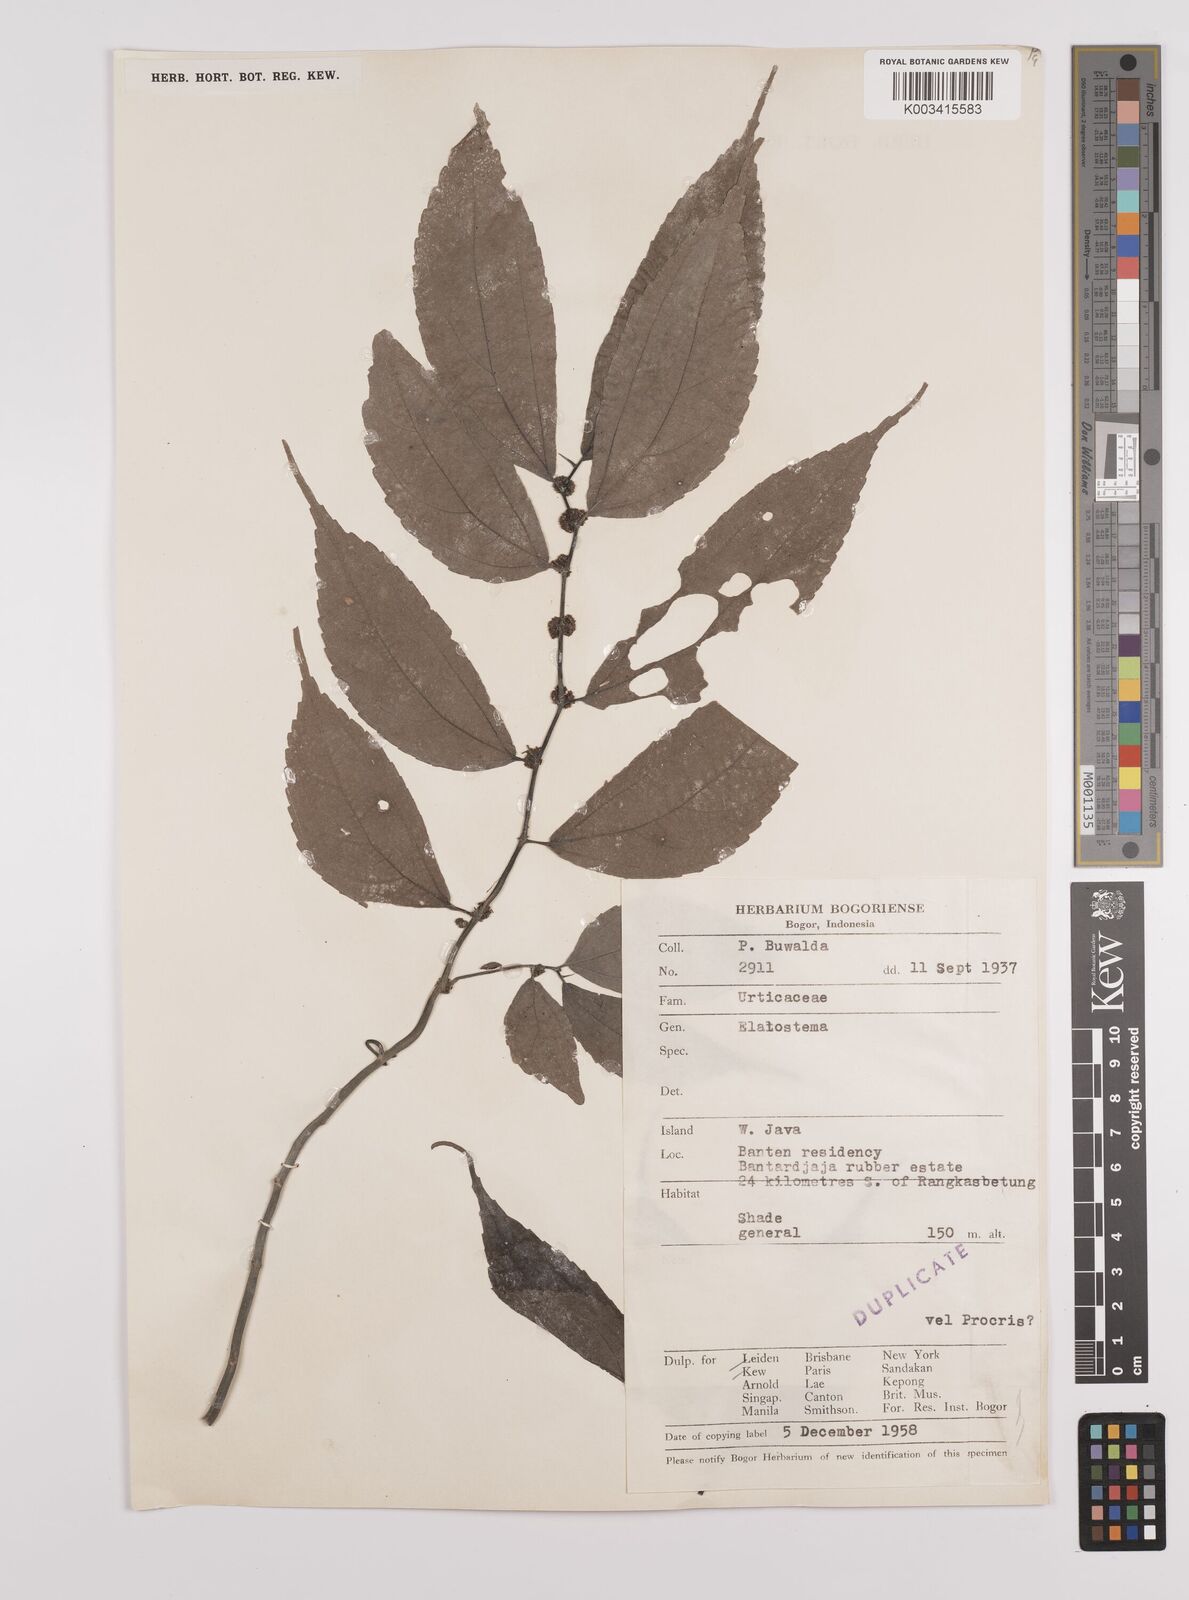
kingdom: Plantae
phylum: Tracheophyta
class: Magnoliopsida
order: Rosales
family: Urticaceae
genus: Elatostema
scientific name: Elatostema
